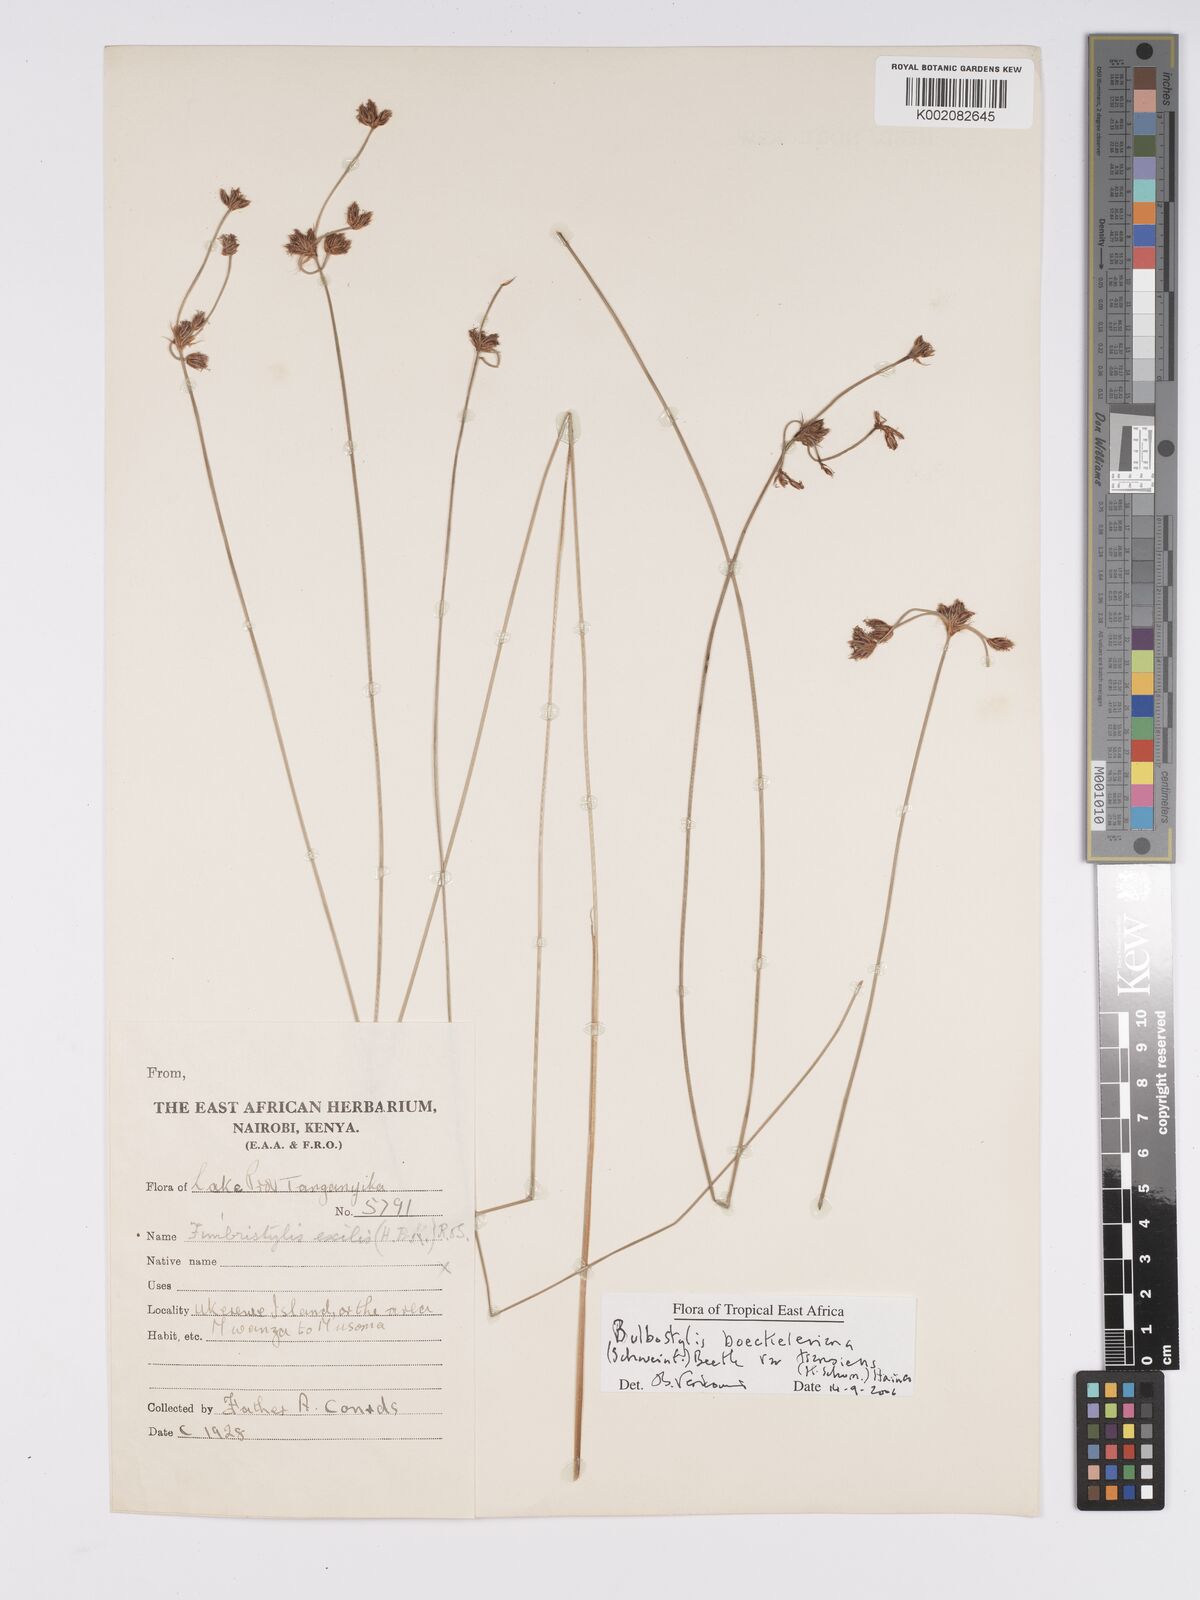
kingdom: Plantae
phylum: Tracheophyta
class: Liliopsida
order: Poales
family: Cyperaceae
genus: Bulbostylis
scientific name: Bulbostylis boeckeleriana
